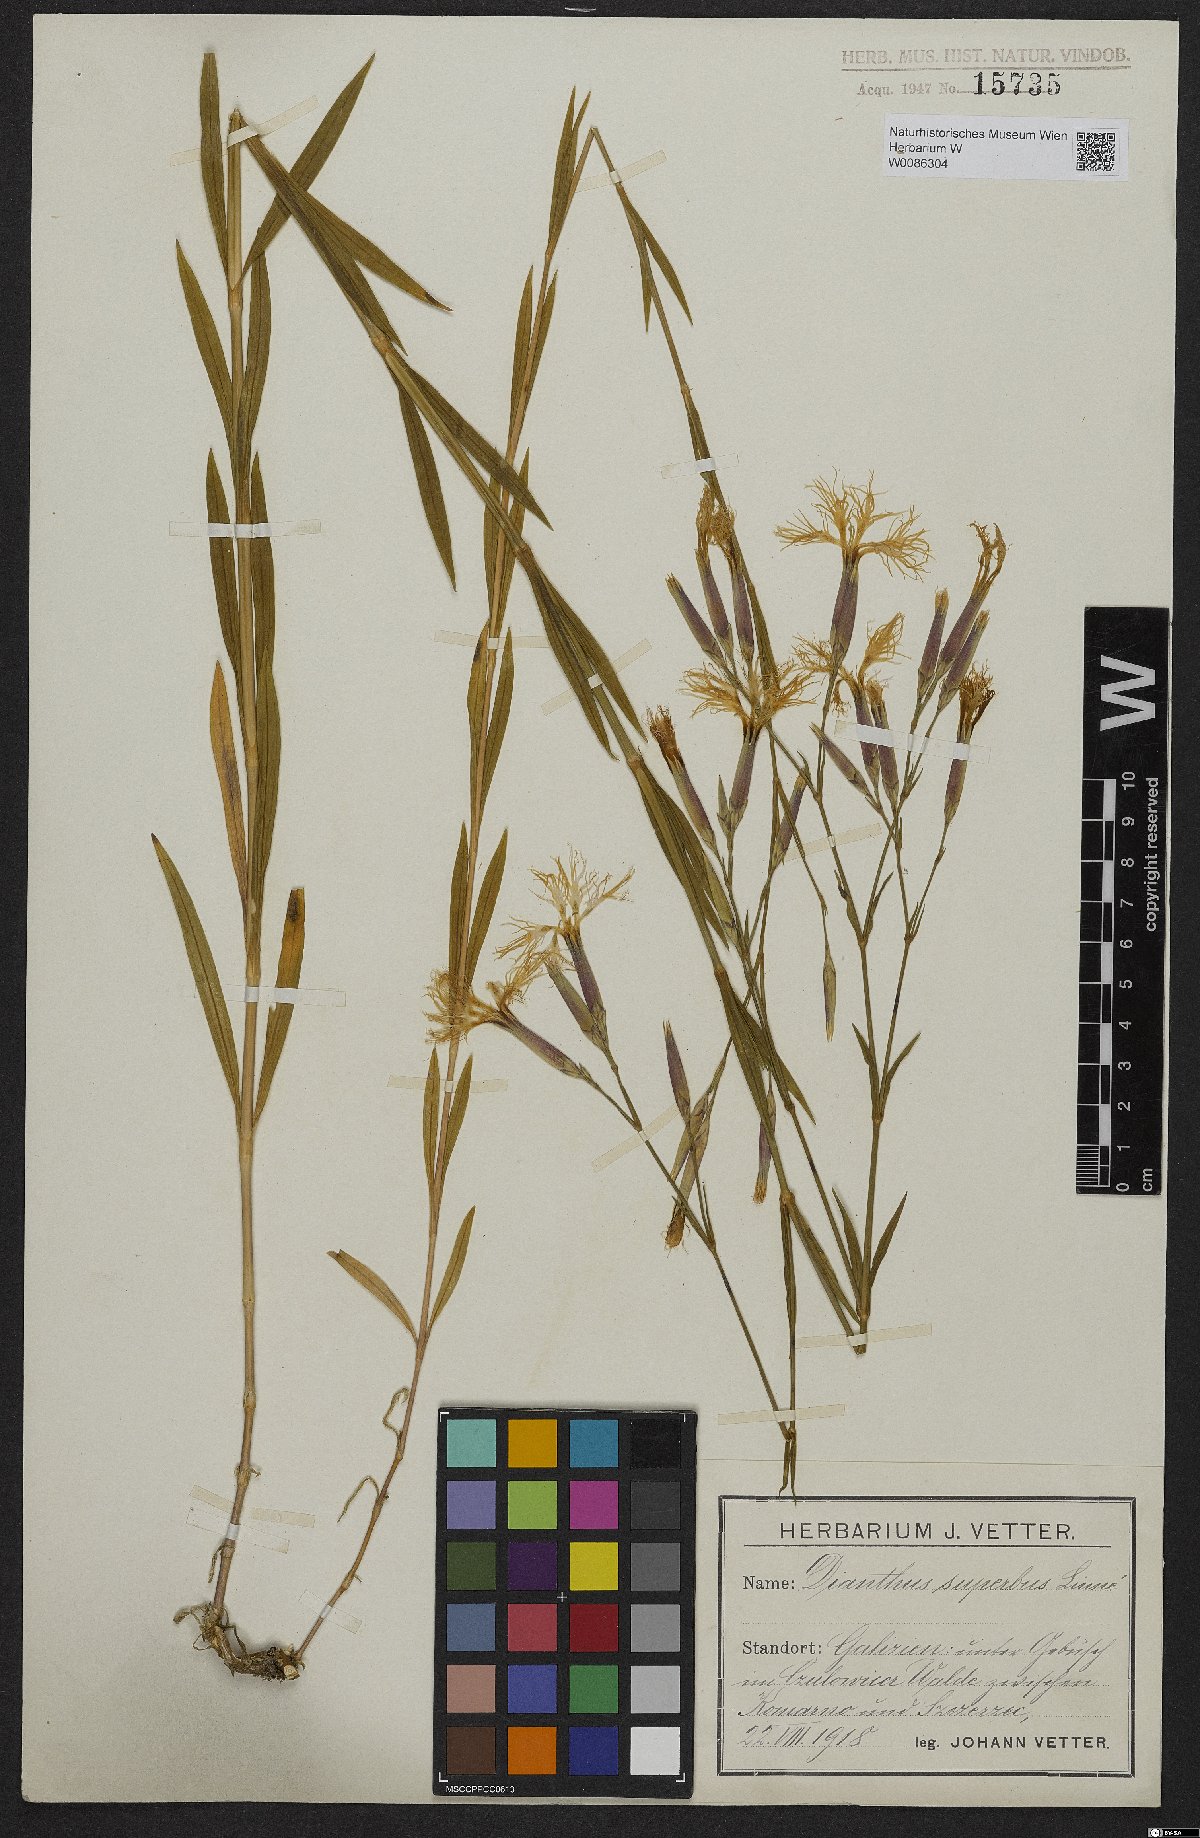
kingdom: Plantae
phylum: Tracheophyta
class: Magnoliopsida
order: Caryophyllales
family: Caryophyllaceae
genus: Dianthus
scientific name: Dianthus superbus
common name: Fringed pink
